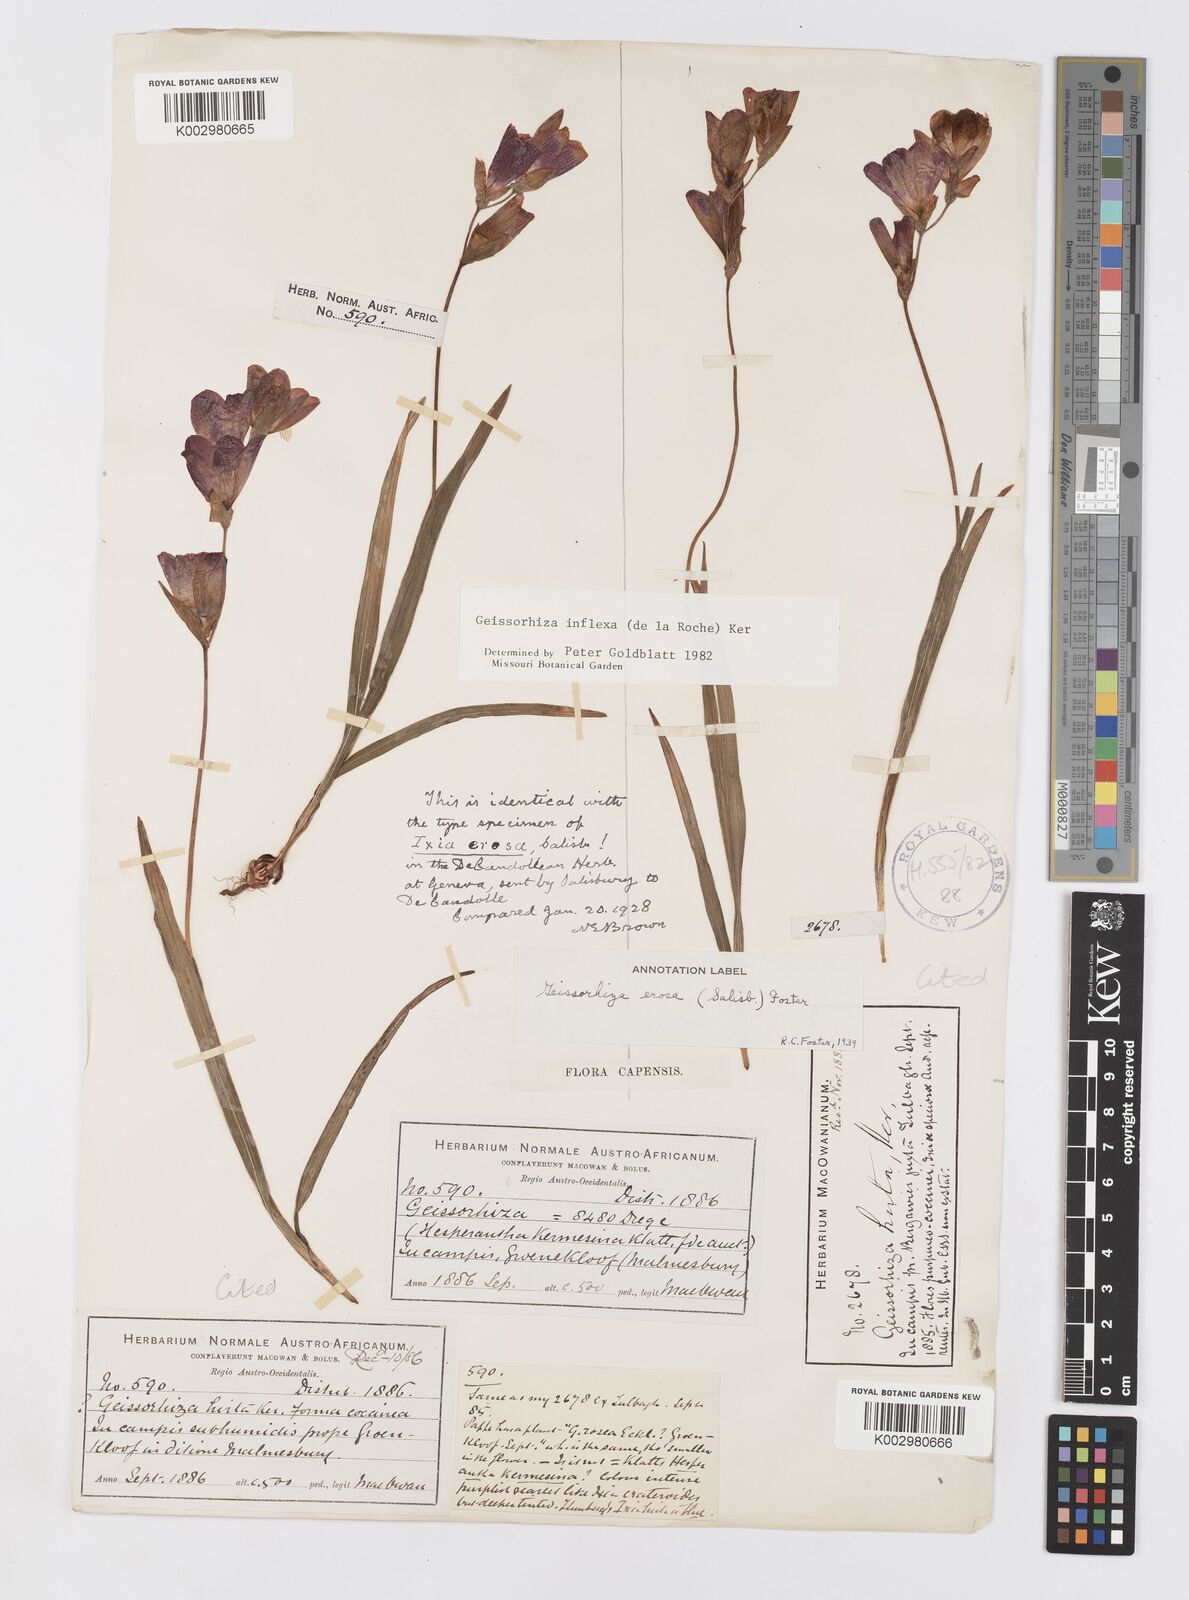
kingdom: Plantae
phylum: Tracheophyta
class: Liliopsida
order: Asparagales
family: Iridaceae
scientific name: Iridaceae
